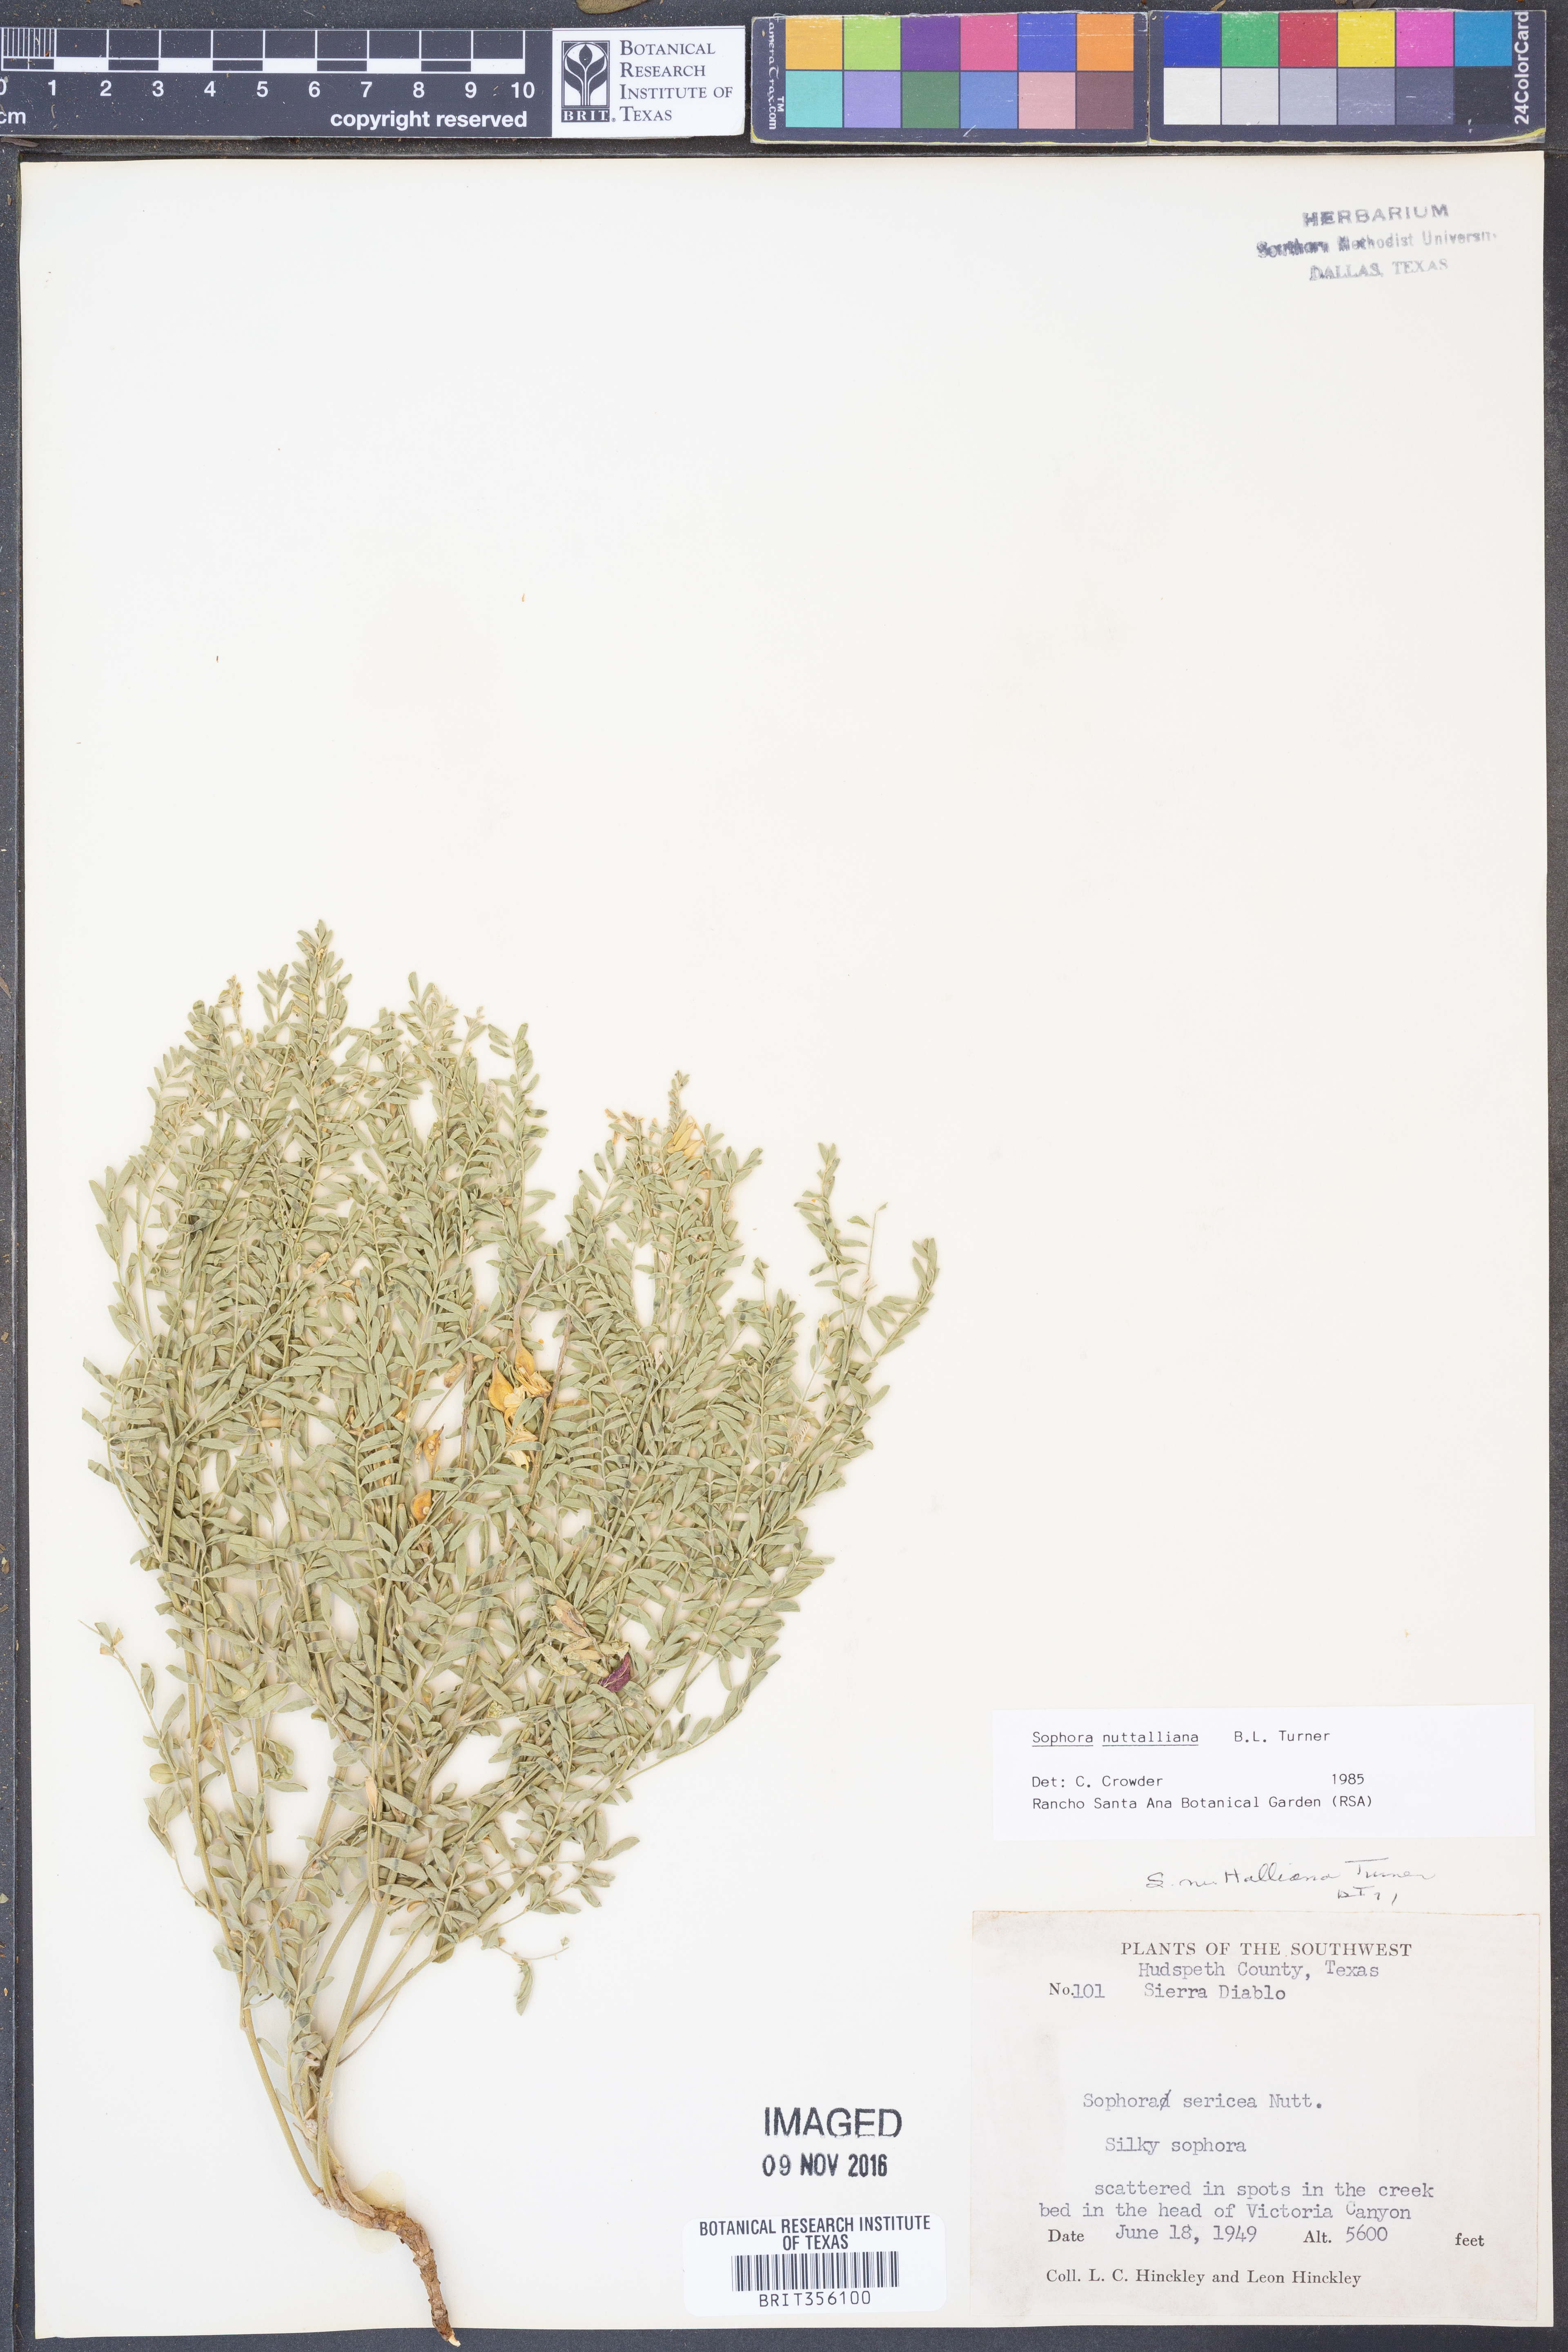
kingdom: Plantae
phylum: Tracheophyta
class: Magnoliopsida
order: Fabales
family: Fabaceae
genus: Sophora
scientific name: Sophora nuttalliana
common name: Silky sophora
